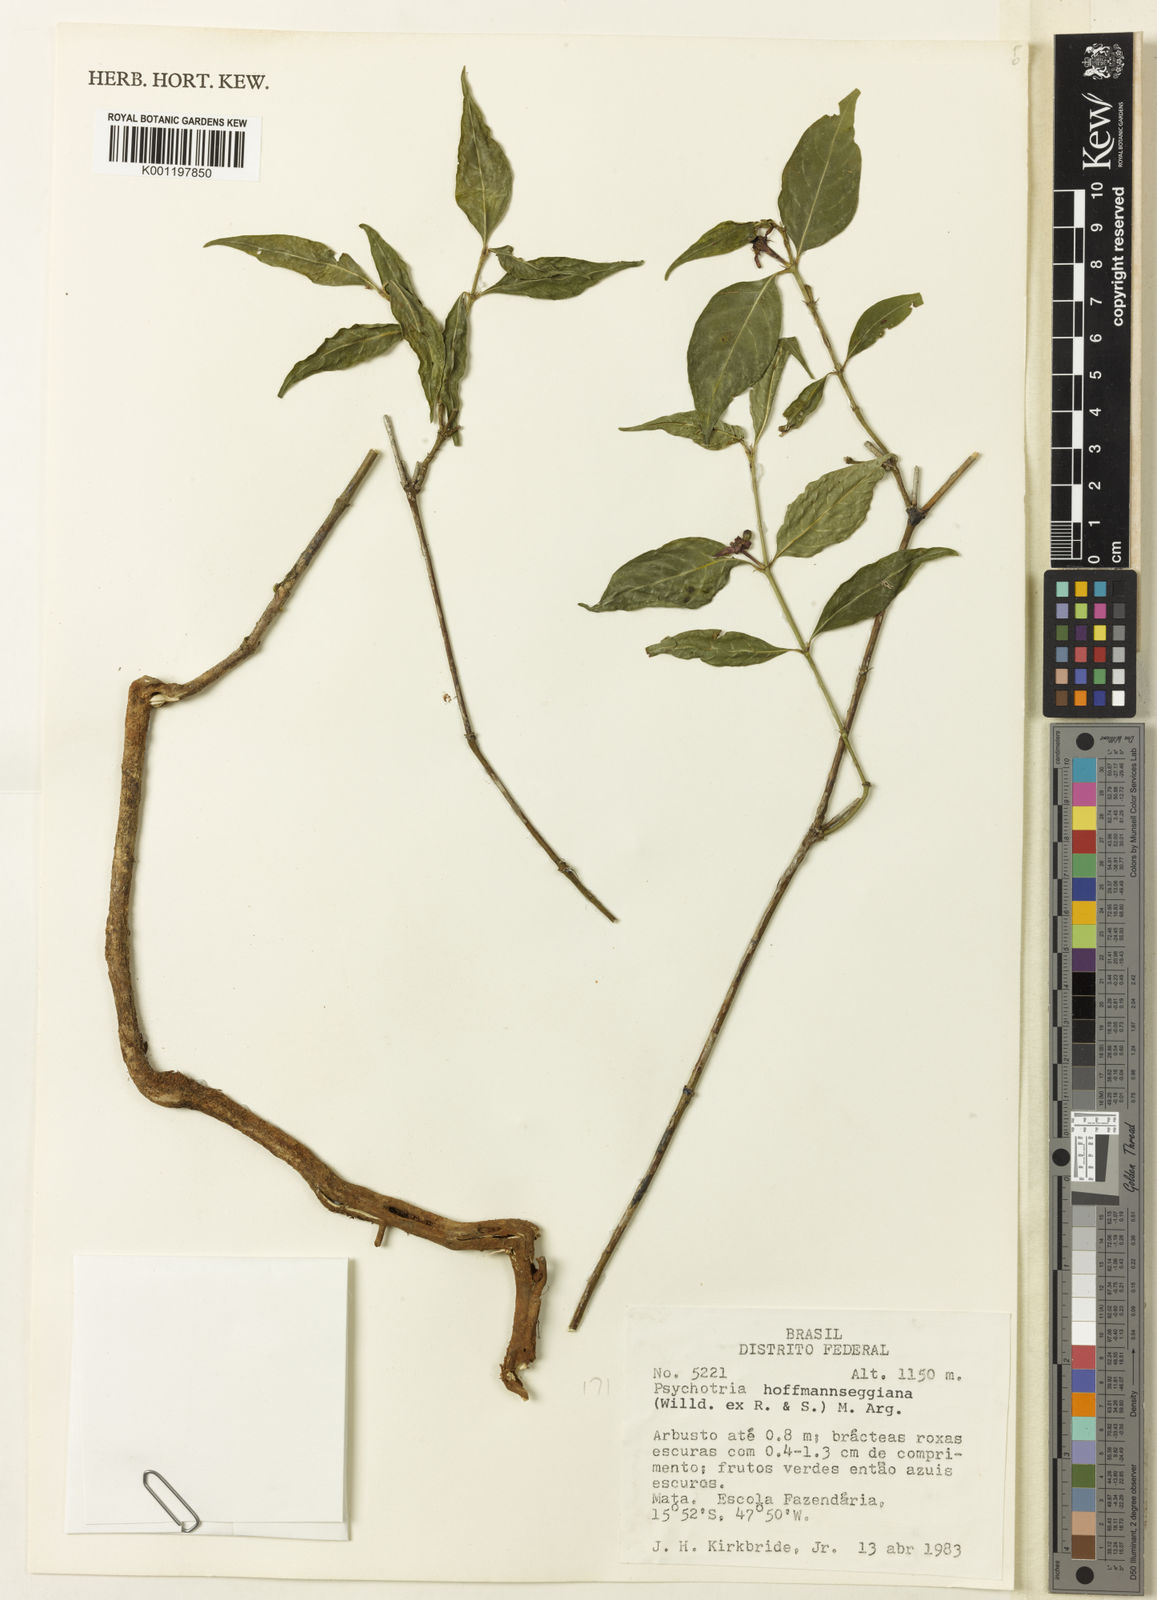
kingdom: Plantae
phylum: Tracheophyta
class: Magnoliopsida
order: Gentianales
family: Rubiaceae
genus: Psychotria
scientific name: Psychotria
